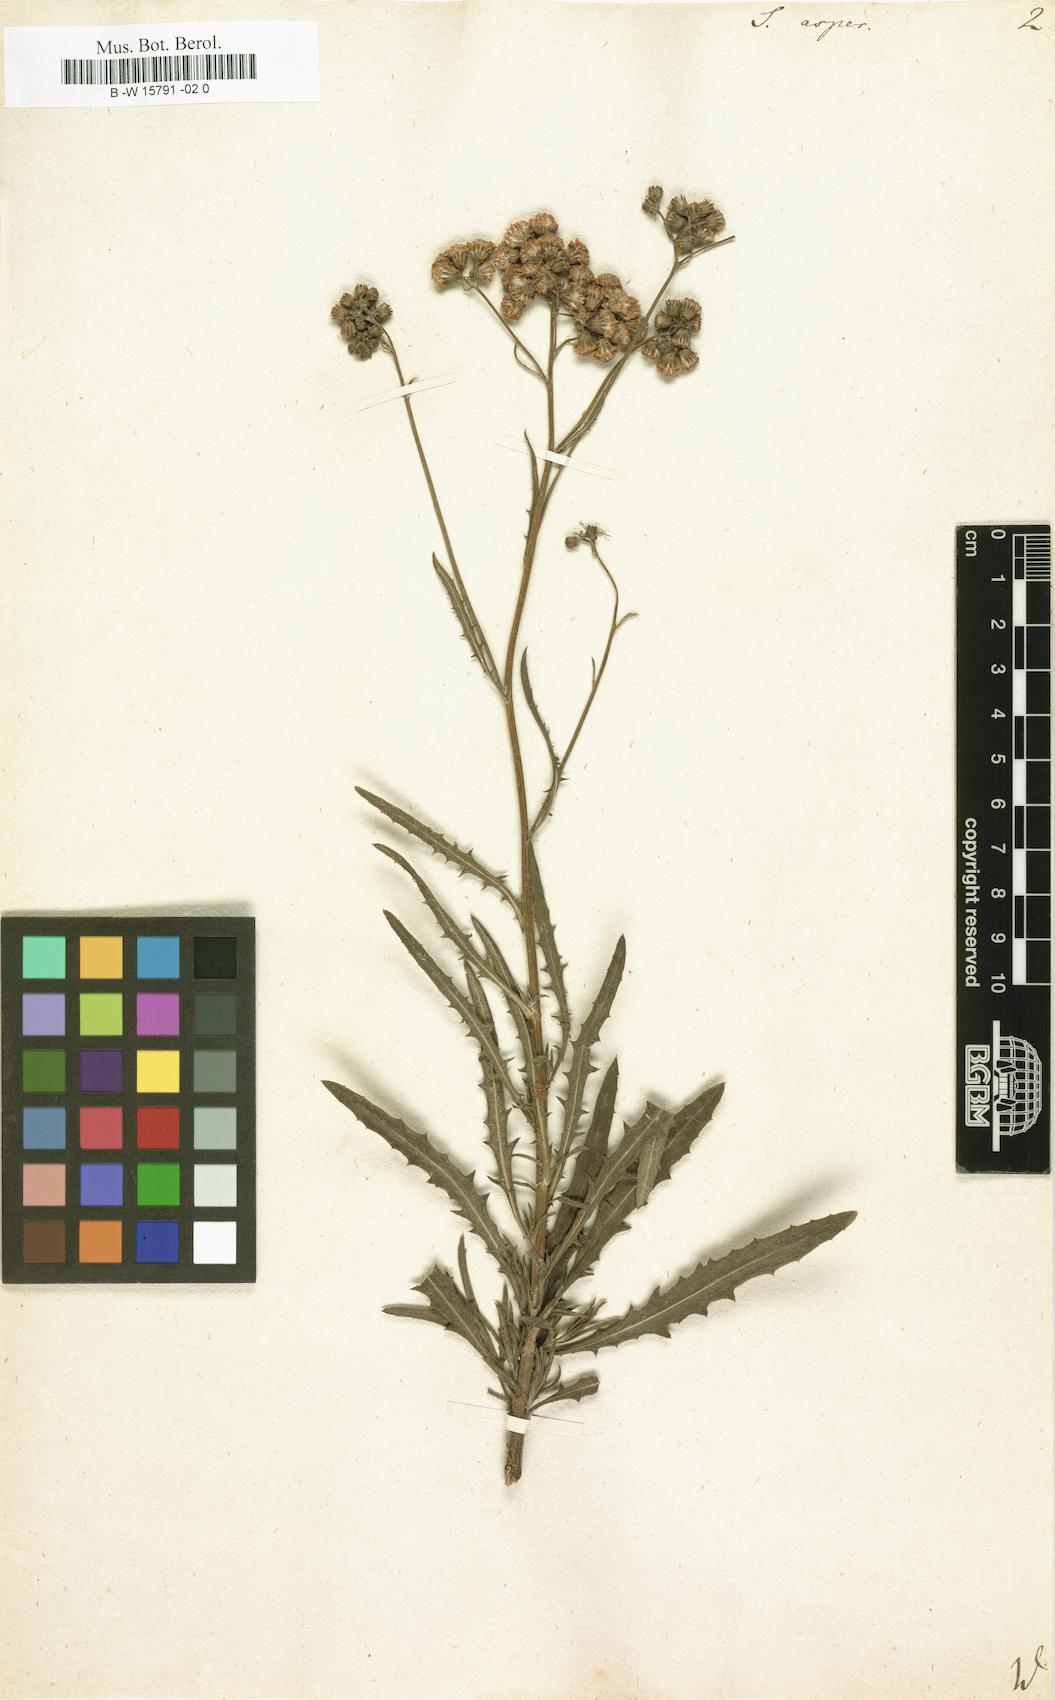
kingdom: Plantae
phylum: Tracheophyta
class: Magnoliopsida
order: Asterales
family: Asteraceae
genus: Senecio
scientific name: Senecio
